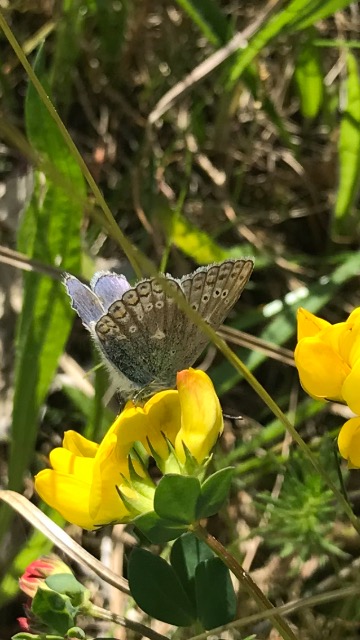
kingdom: Animalia
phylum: Arthropoda
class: Insecta
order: Lepidoptera
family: Lycaenidae
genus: Polyommatus
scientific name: Polyommatus icarus
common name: Almindelig blåfugl
